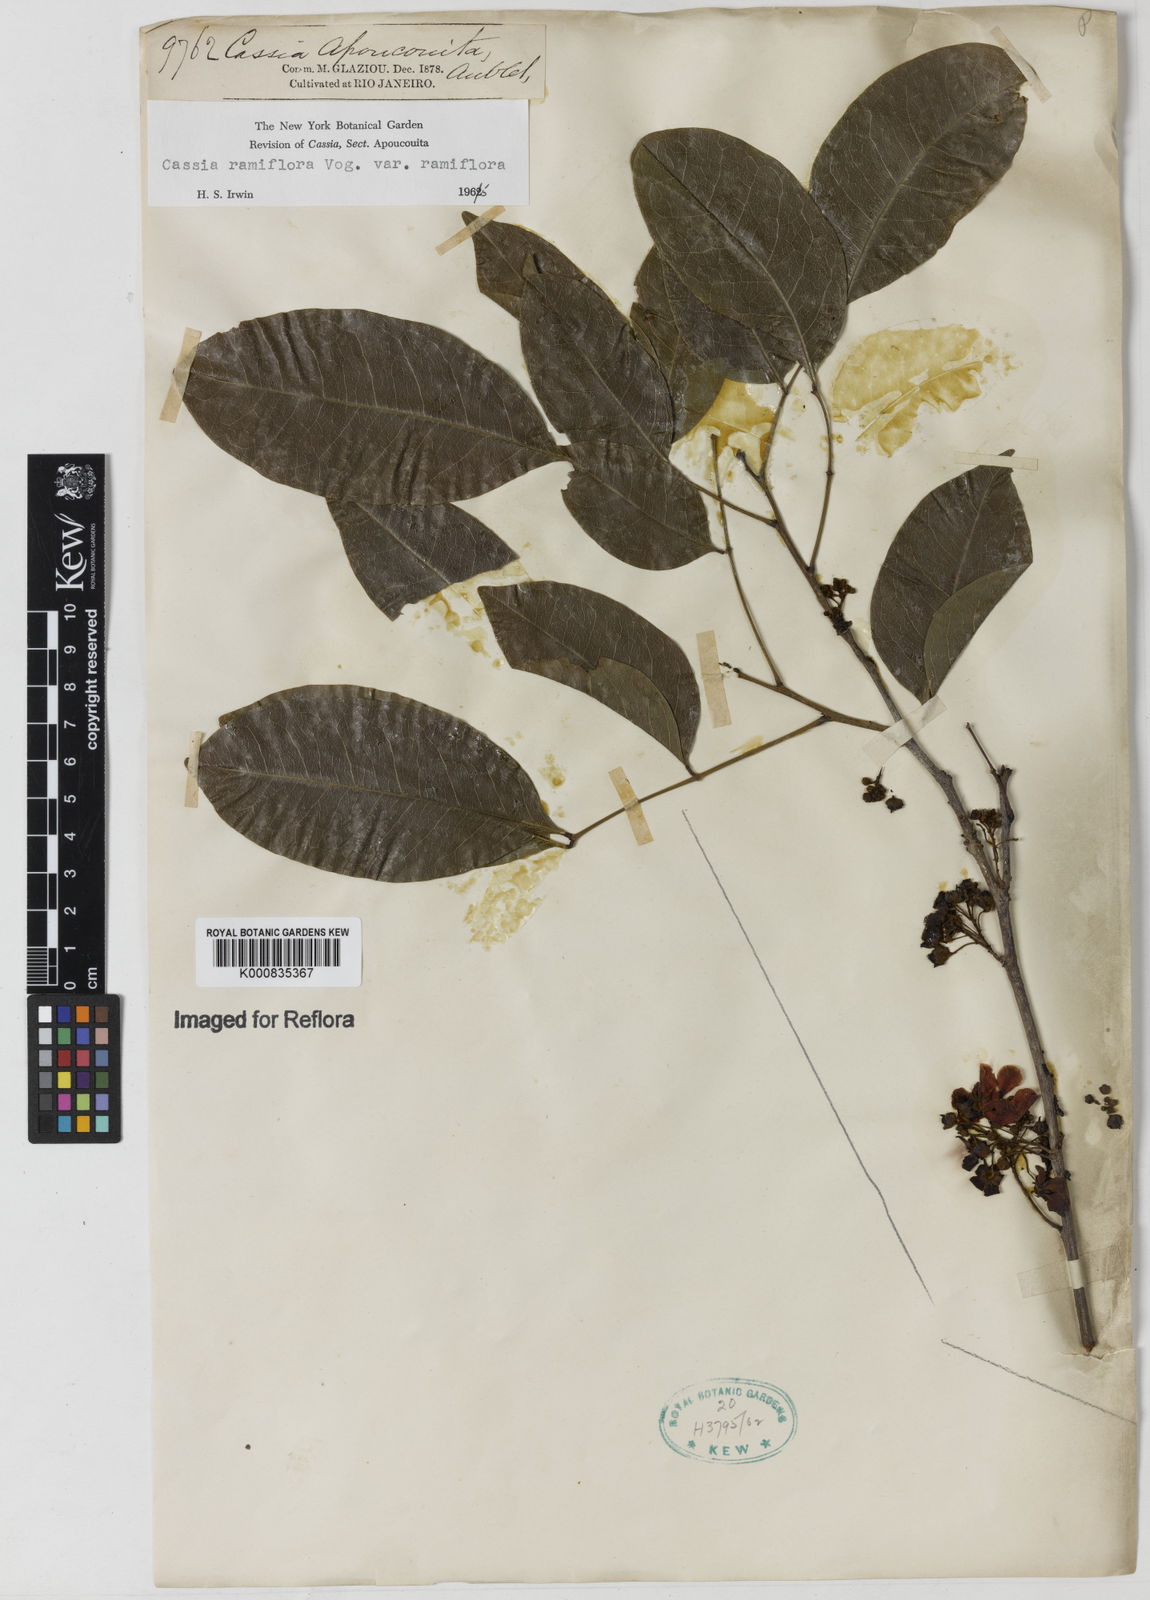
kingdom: Plantae
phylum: Tracheophyta
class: Magnoliopsida
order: Fabales
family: Fabaceae
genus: Chamaecrista
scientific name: Chamaecrista ensiformis
